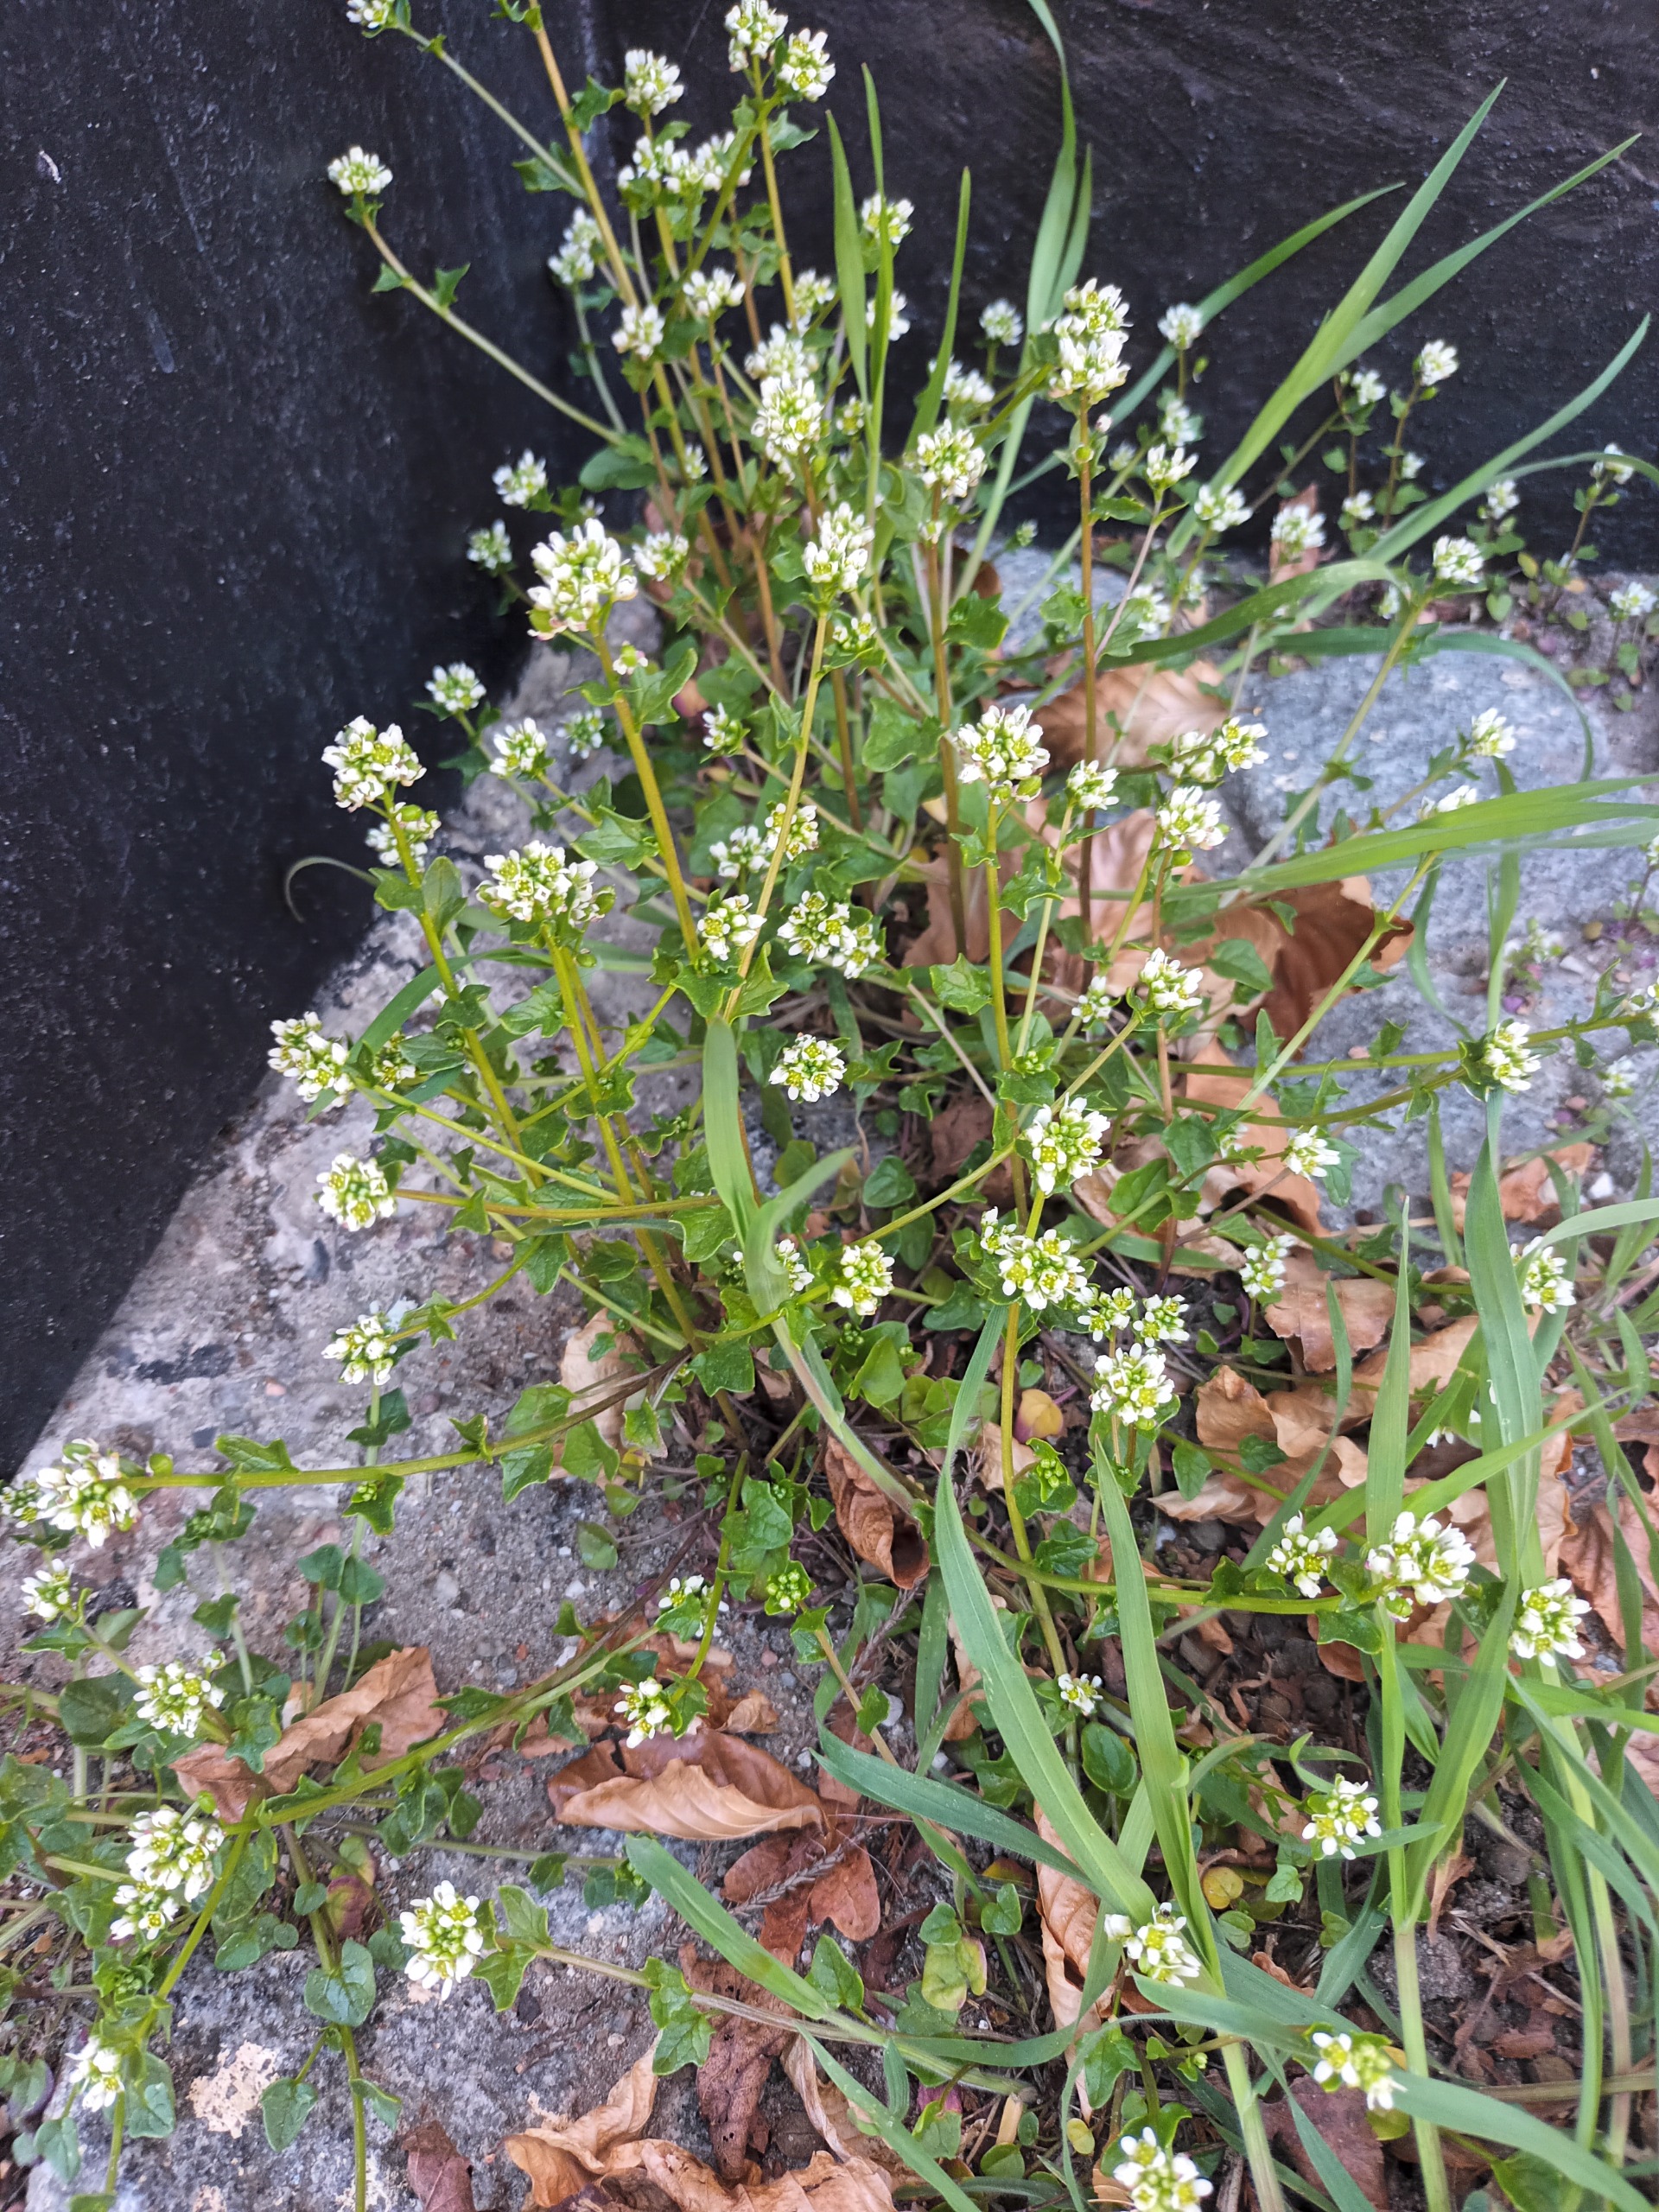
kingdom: Plantae
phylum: Tracheophyta
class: Magnoliopsida
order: Brassicales
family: Brassicaceae
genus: Cochlearia
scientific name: Cochlearia danica
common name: Dansk kokleare
